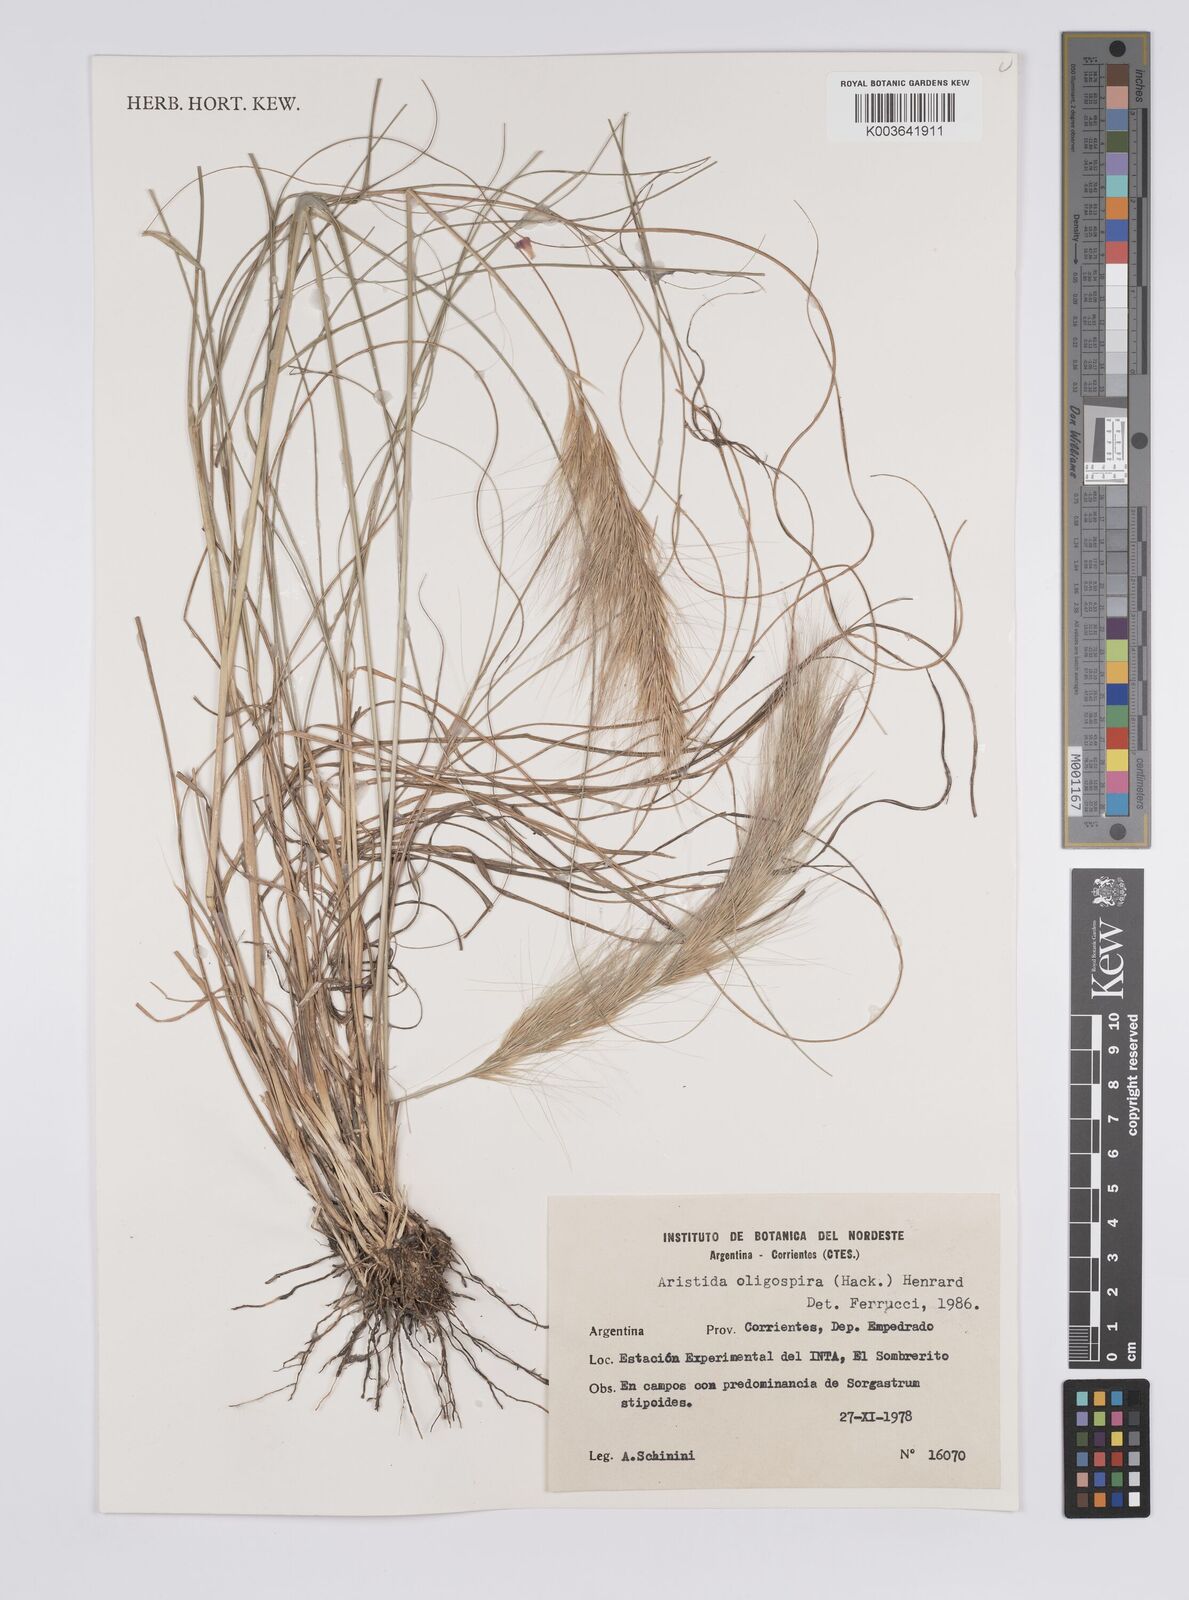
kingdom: Plantae
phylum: Tracheophyta
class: Liliopsida
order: Poales
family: Poaceae
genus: Aristida
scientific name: Aristida oligospira
